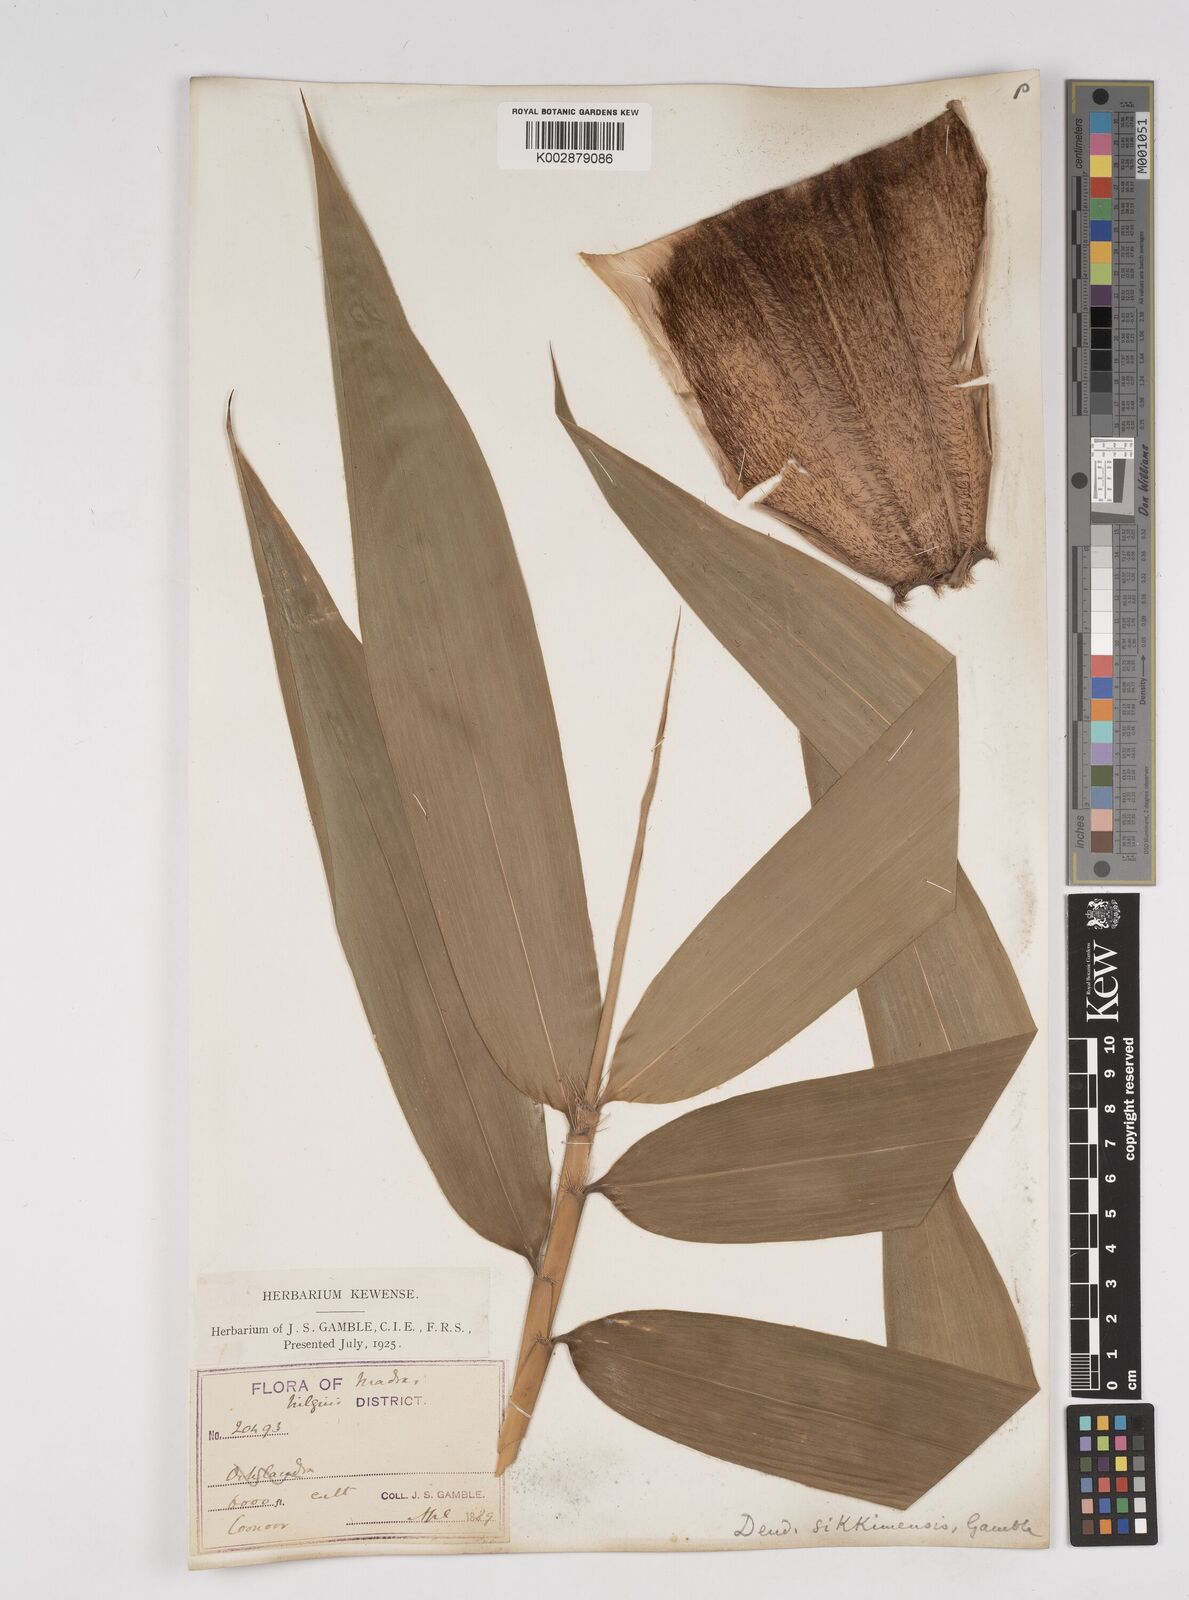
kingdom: Plantae
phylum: Tracheophyta
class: Liliopsida
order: Poales
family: Poaceae
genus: Dendrocalamus
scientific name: Dendrocalamus sikkimensis
